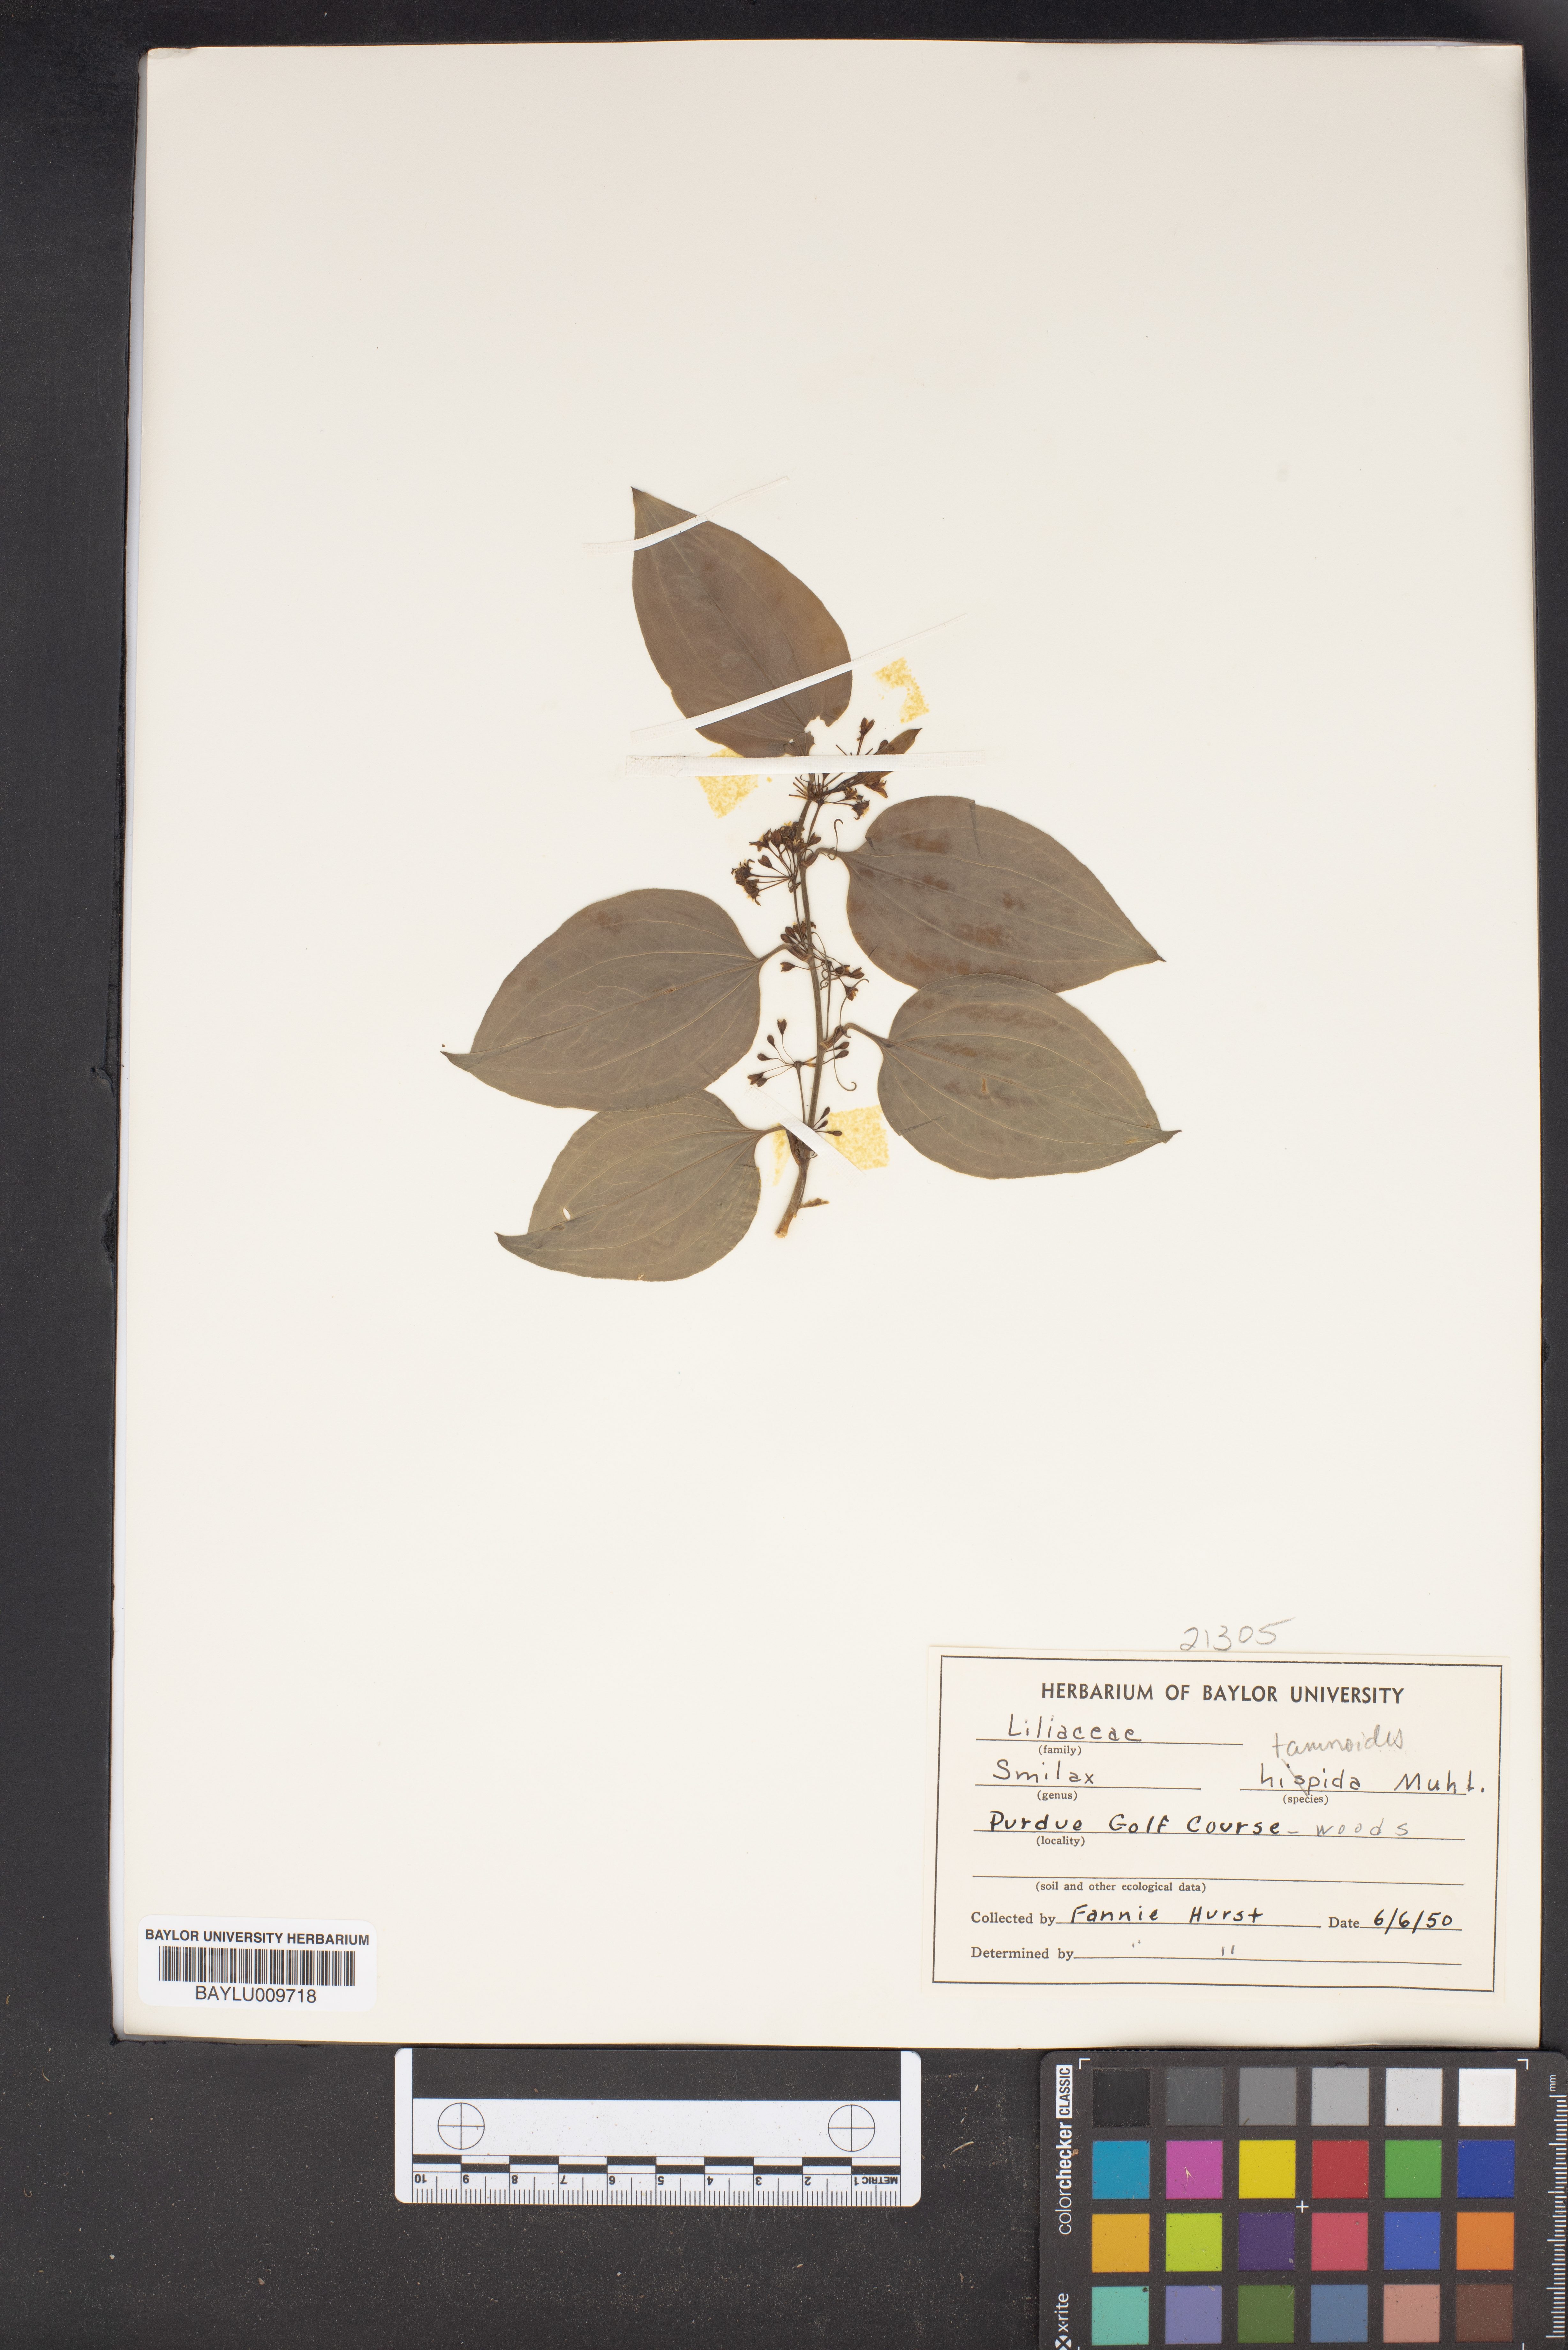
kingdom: Plantae
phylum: Tracheophyta
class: Liliopsida
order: Liliales
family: Smilacaceae
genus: Smilax
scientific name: Smilax tamnoides
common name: Hellfetter
